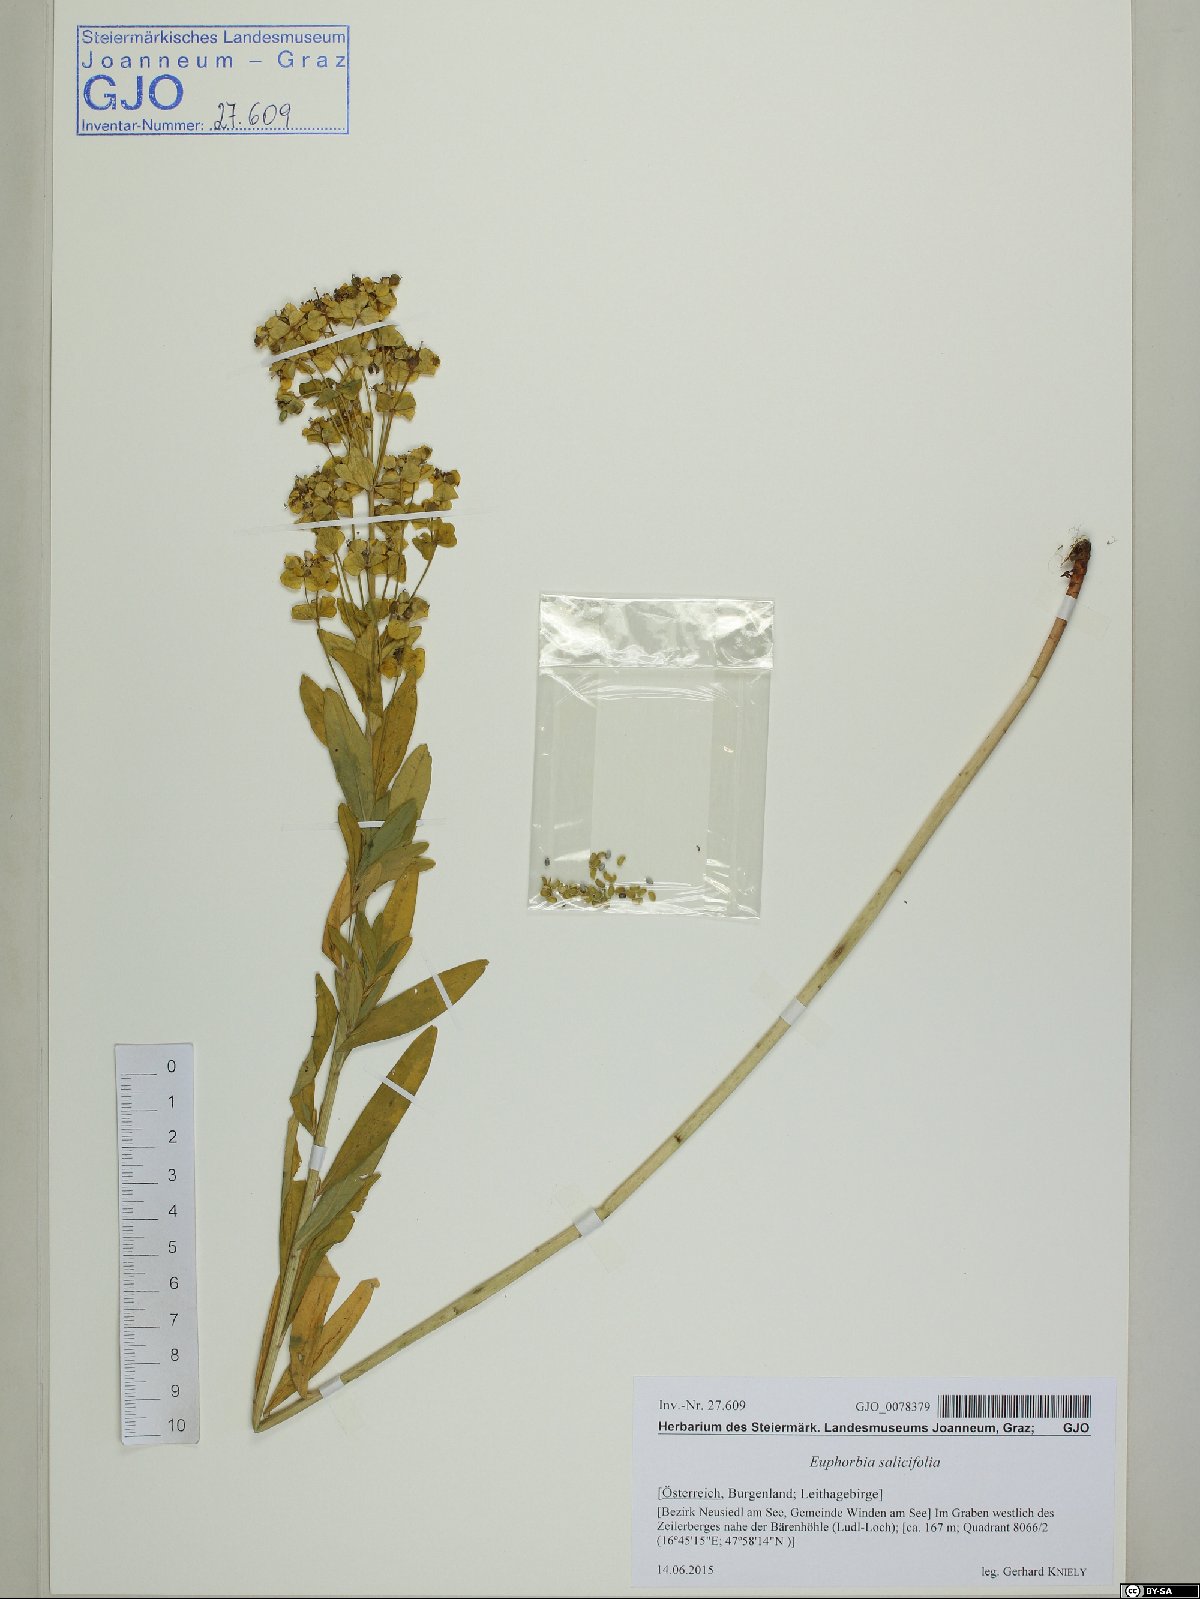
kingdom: Plantae
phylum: Tracheophyta
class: Magnoliopsida
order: Malpighiales
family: Euphorbiaceae
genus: Euphorbia
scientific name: Euphorbia salicifolia
